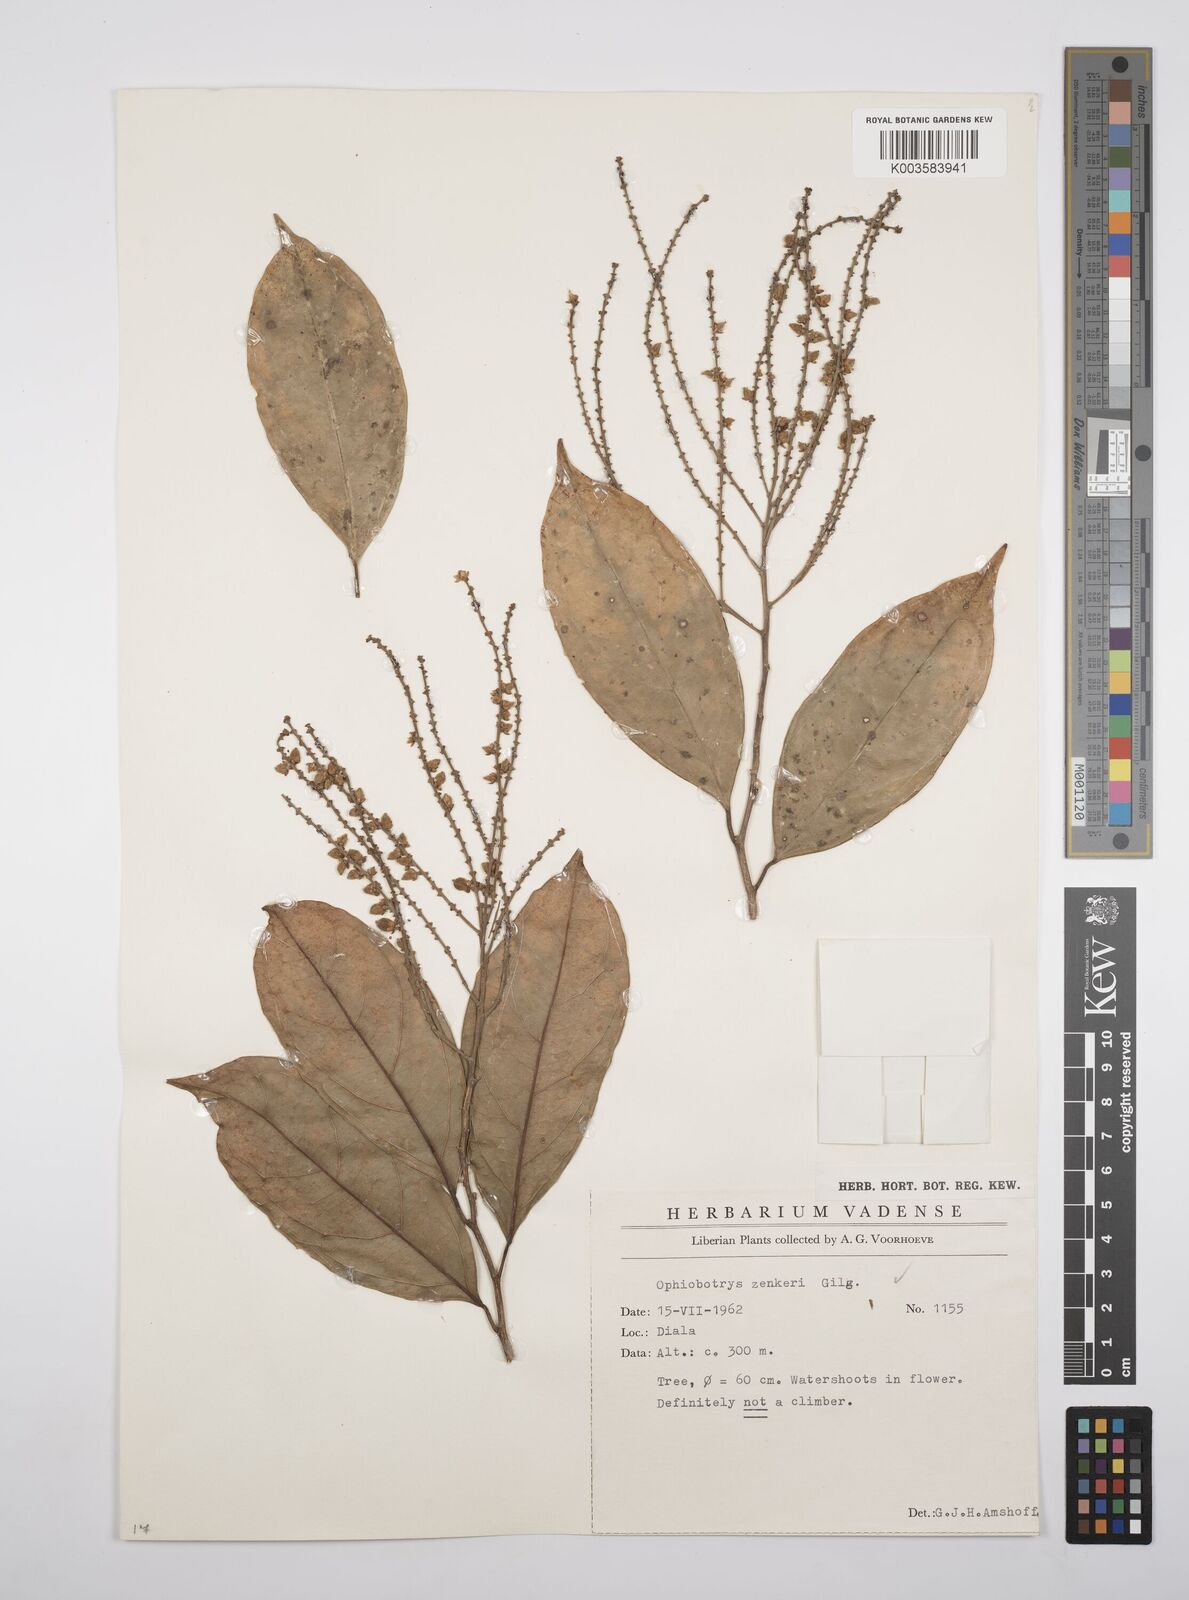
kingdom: Plantae
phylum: Tracheophyta
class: Magnoliopsida
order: Malpighiales
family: Salicaceae
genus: Ophiobotrys
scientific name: Ophiobotrys zenkeri
